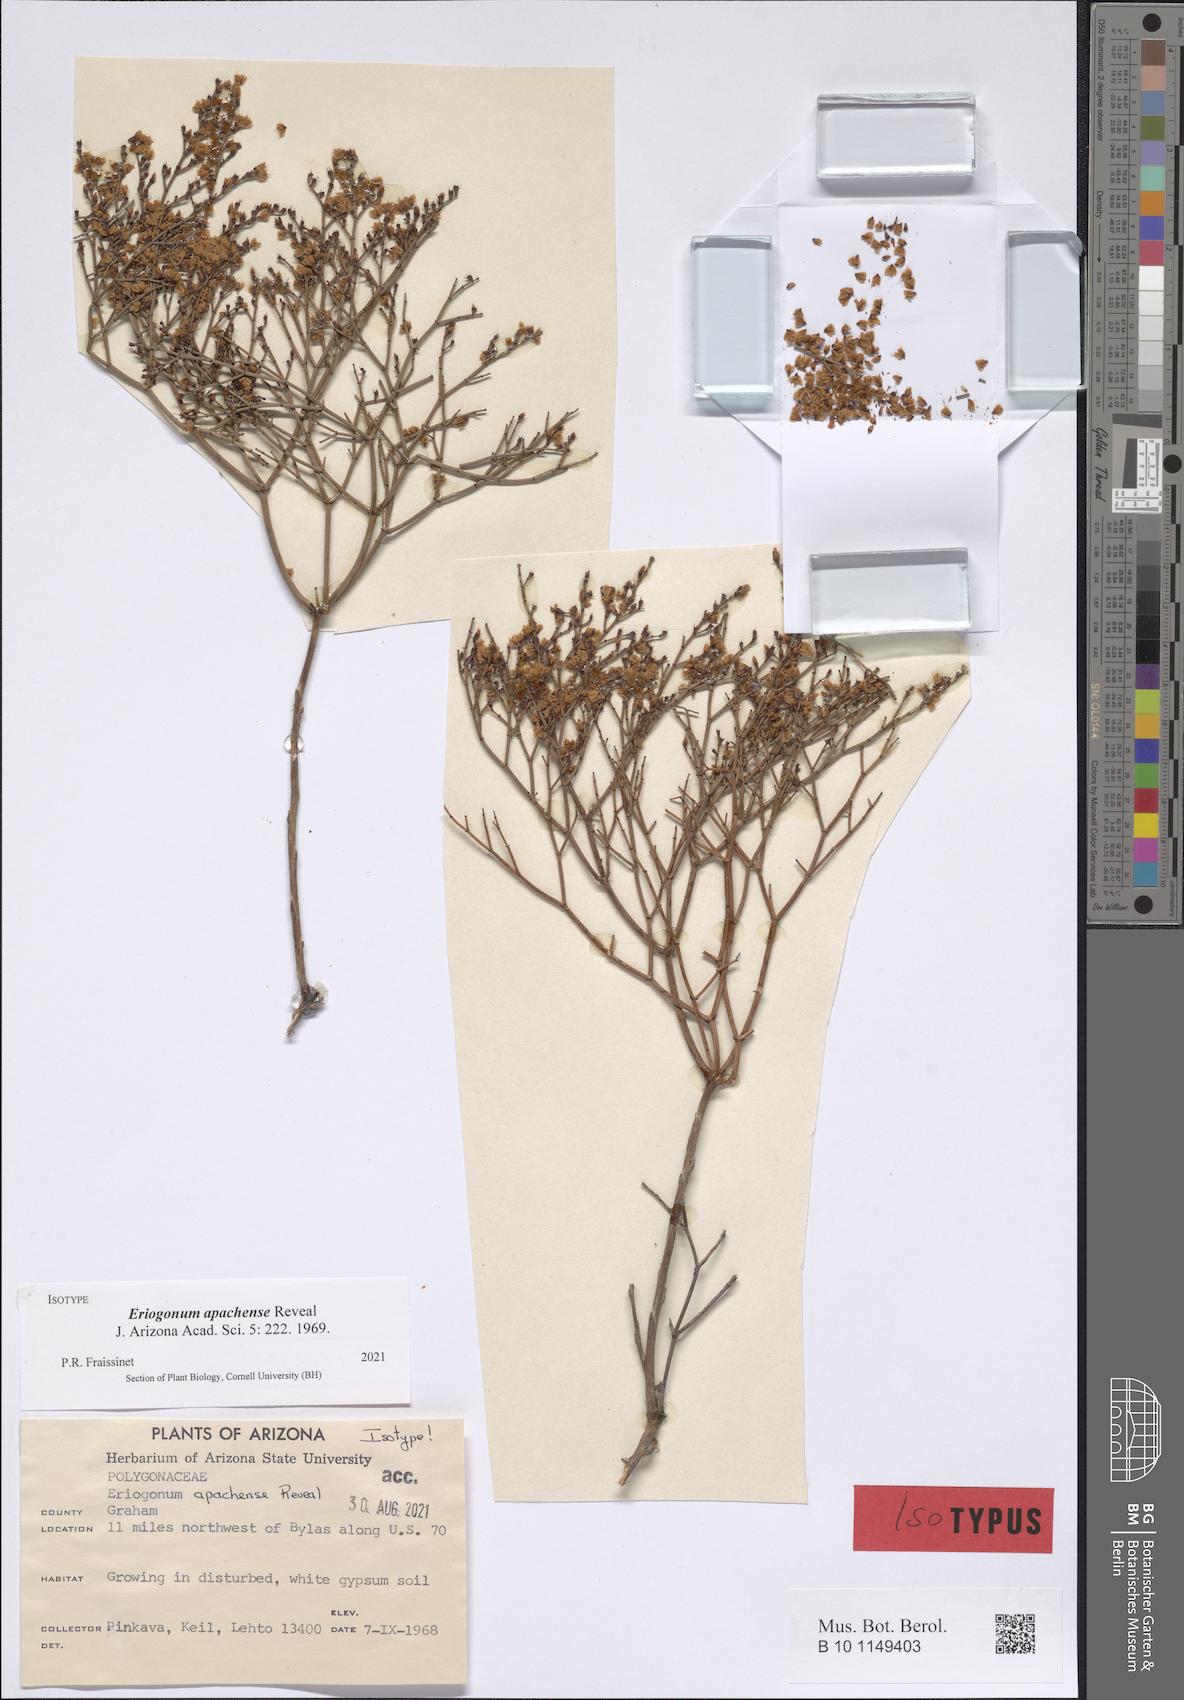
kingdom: Plantae
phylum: Tracheophyta
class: Magnoliopsida
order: Caryophyllales
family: Polygonaceae
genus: Eriogonum
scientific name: Eriogonum heermannii
